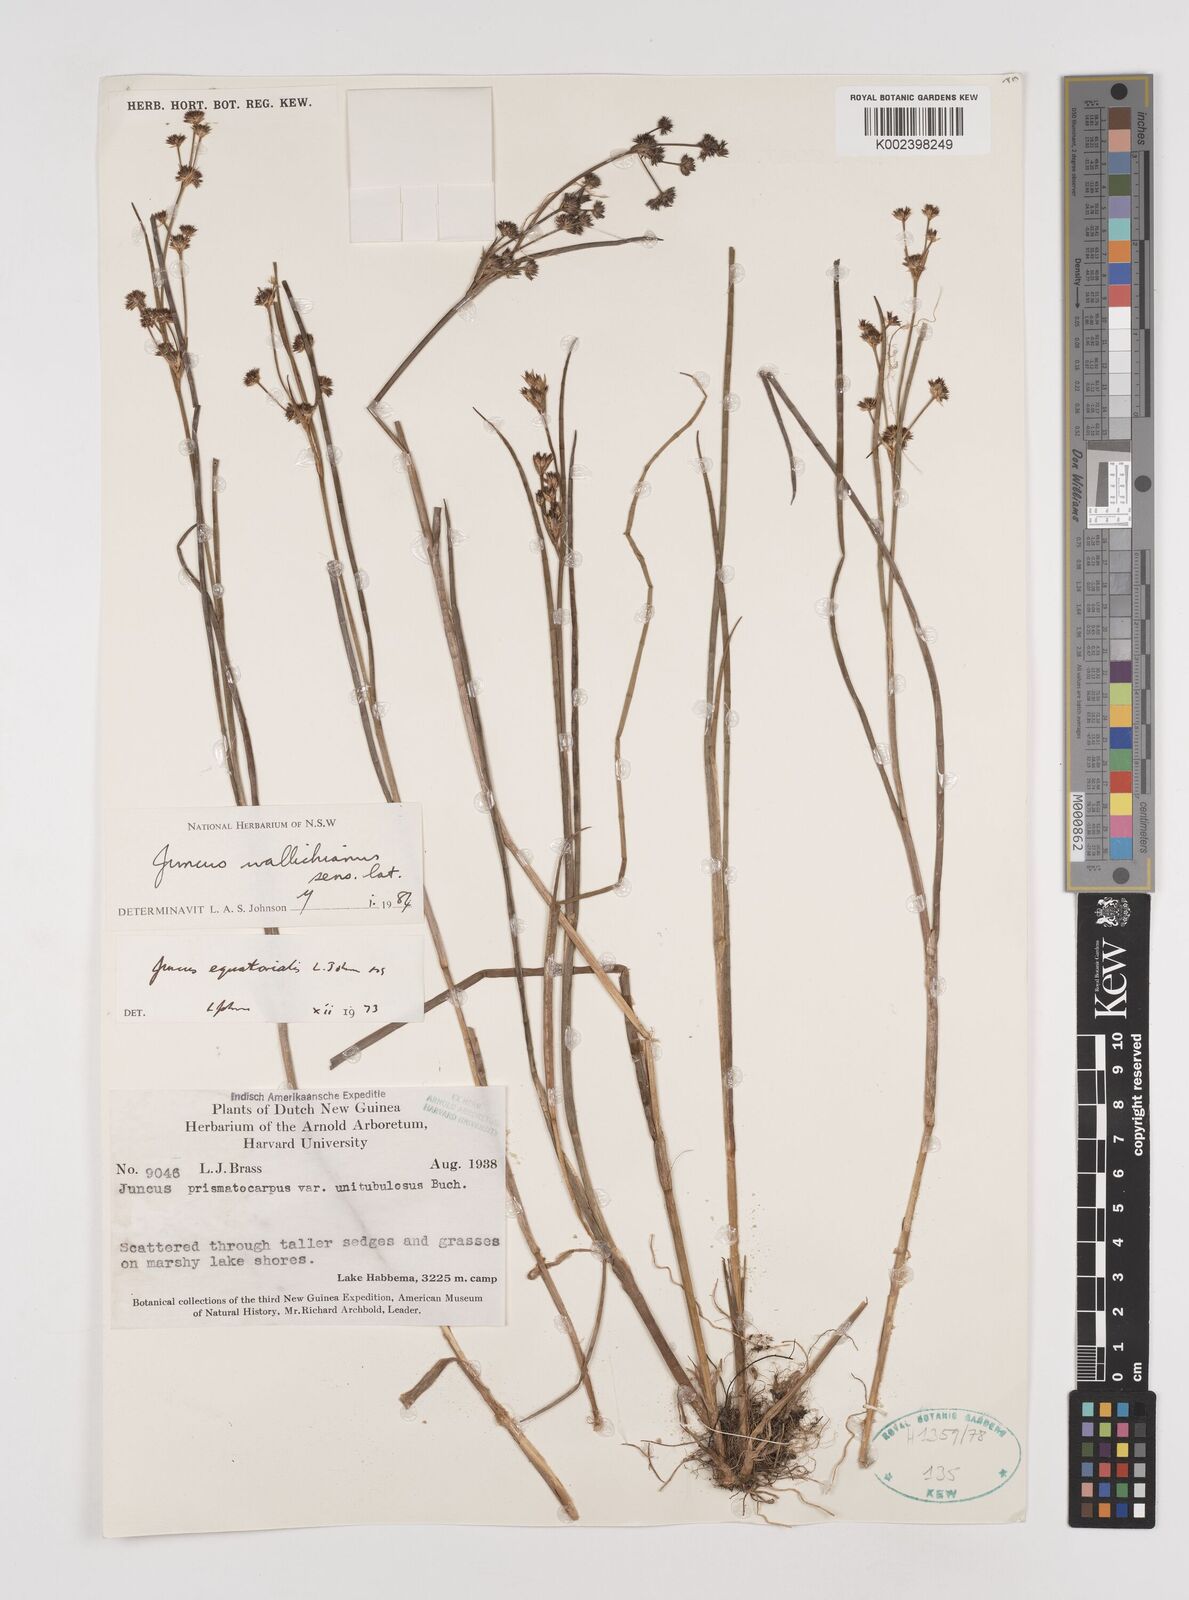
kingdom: Plantae
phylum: Tracheophyta
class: Liliopsida
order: Poales
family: Juncaceae
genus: Juncus
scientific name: Juncus wallichianus
